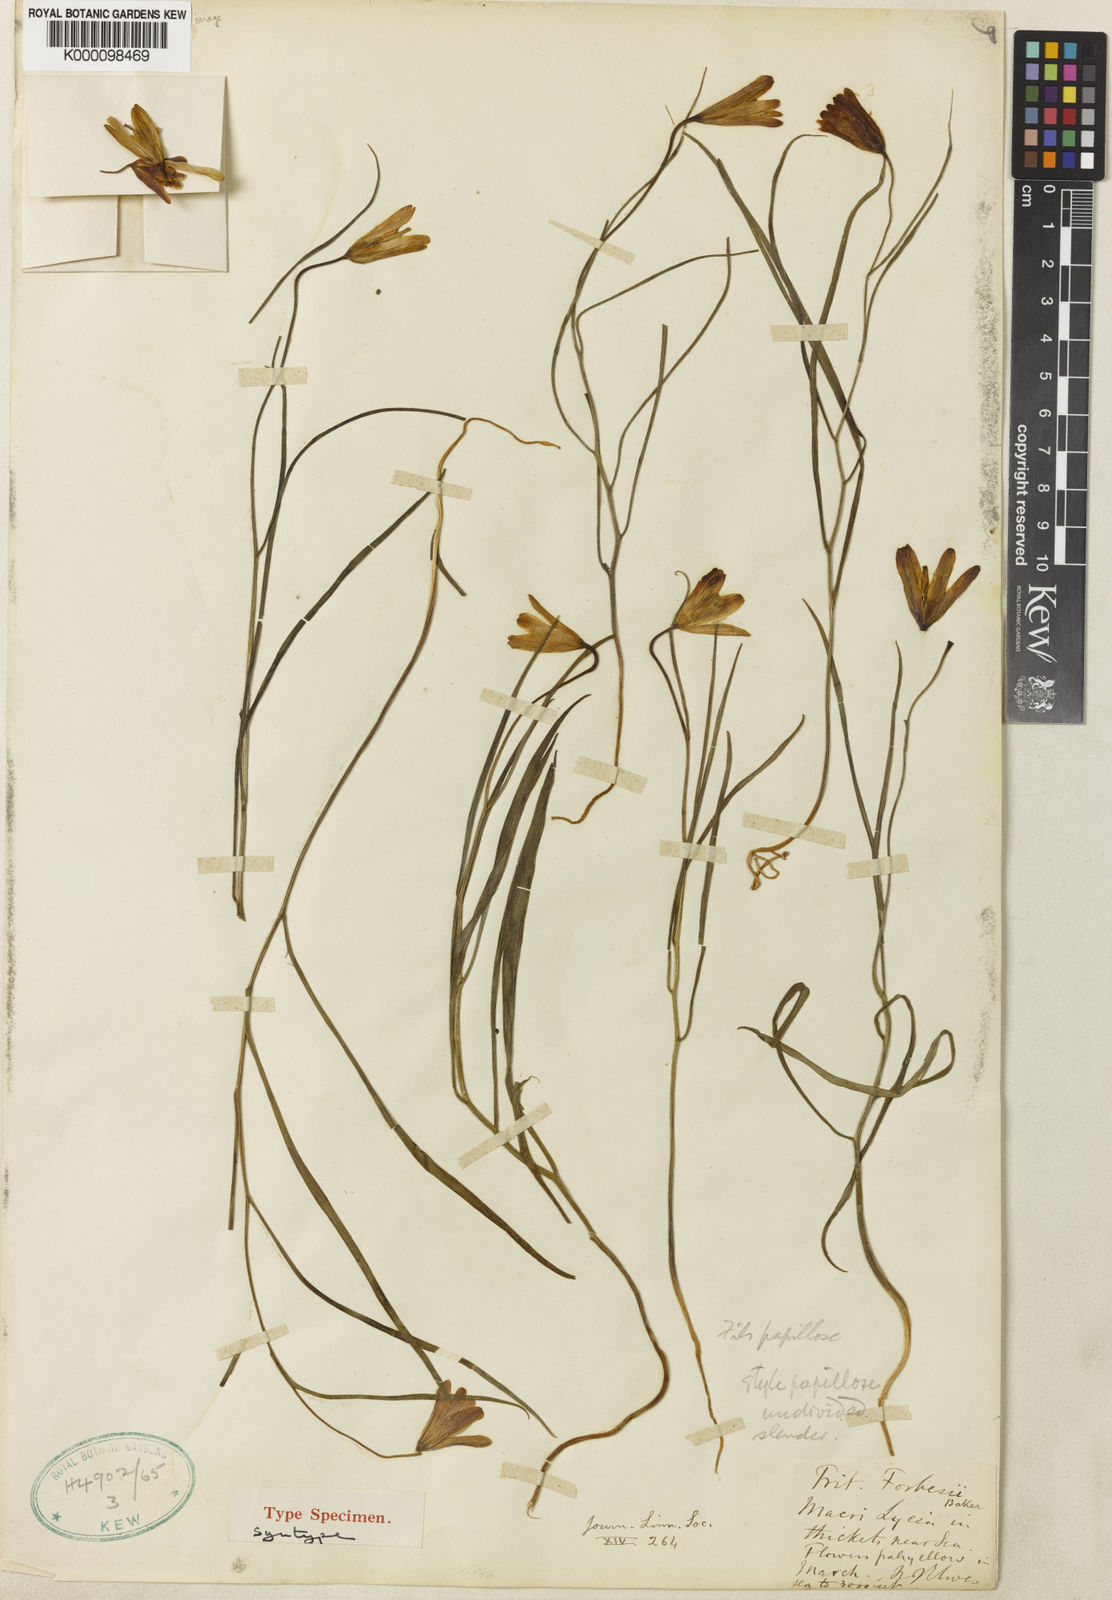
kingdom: Plantae
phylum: Tracheophyta
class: Liliopsida
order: Liliales
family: Liliaceae
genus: Fritillaria
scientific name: Fritillaria forbesii
